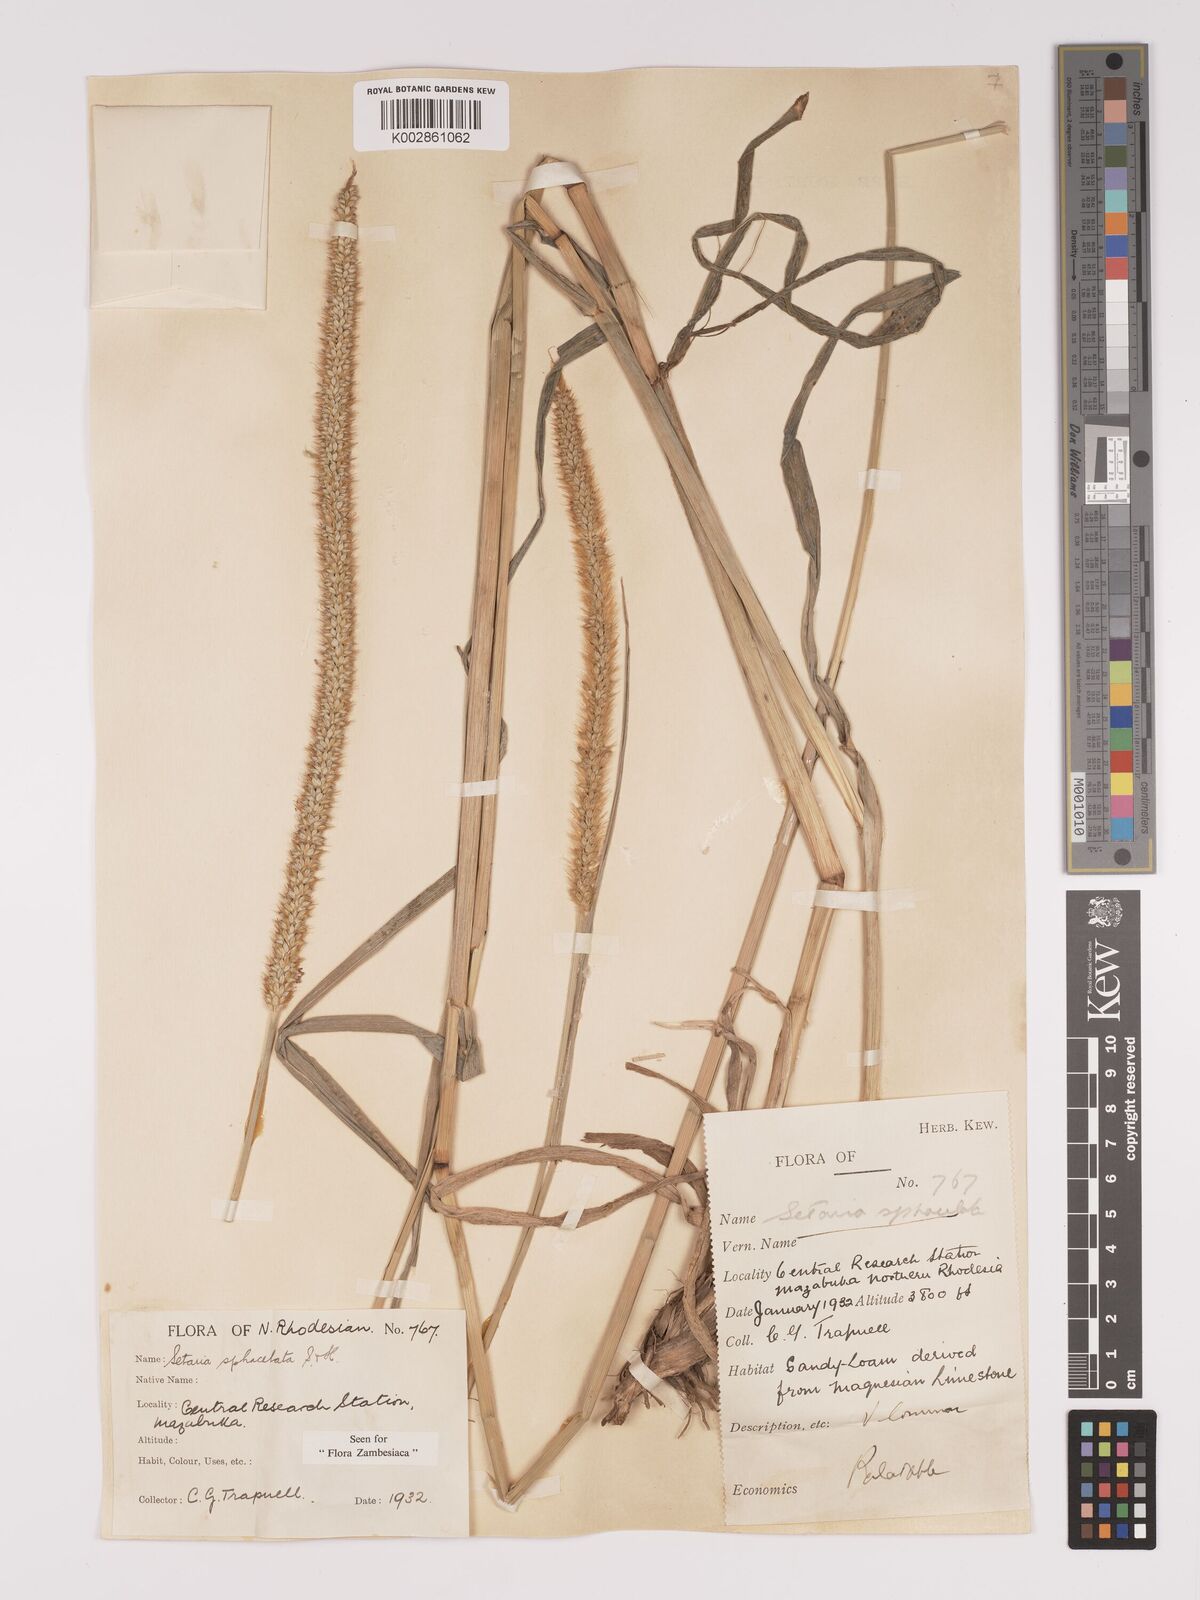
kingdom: Plantae
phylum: Tracheophyta
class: Liliopsida
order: Poales
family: Poaceae
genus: Setaria
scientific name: Setaria sphacelata
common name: African bristlegrass
